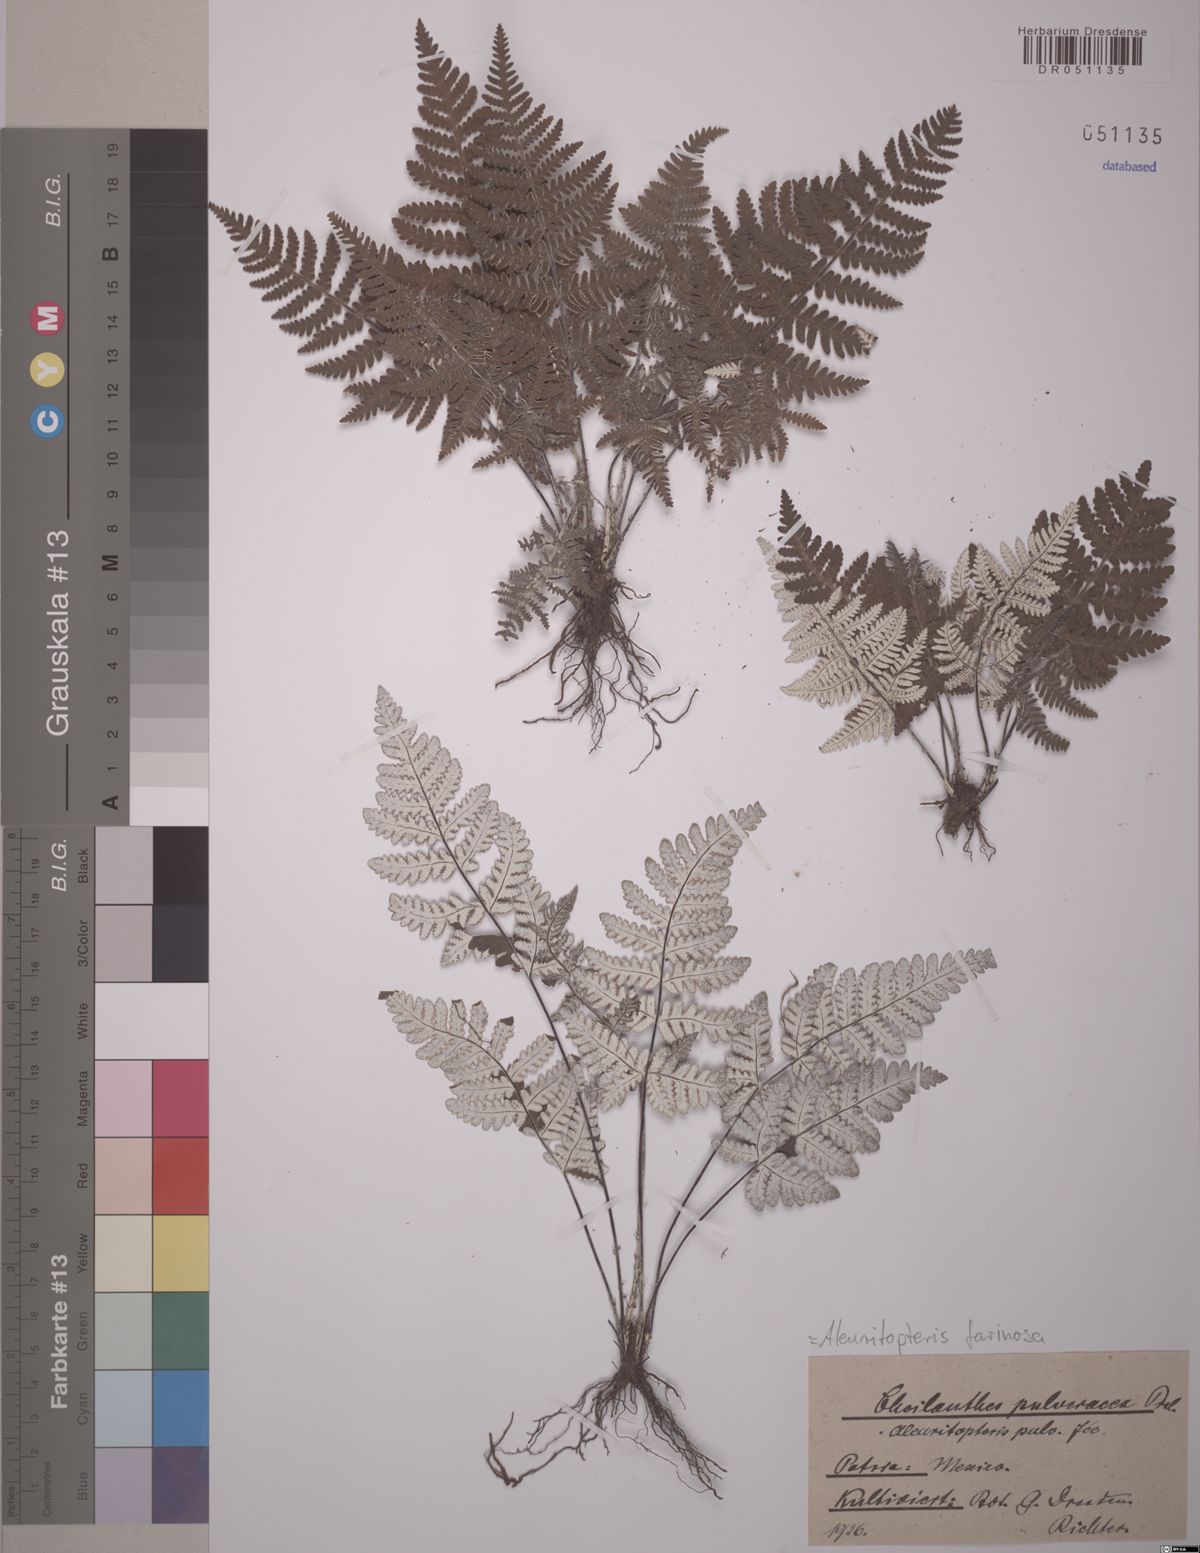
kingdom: Plantae
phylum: Tracheophyta
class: Polypodiopsida
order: Polypodiales
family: Pteridaceae
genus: Aleuritopteris
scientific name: Aleuritopteris farinosa
